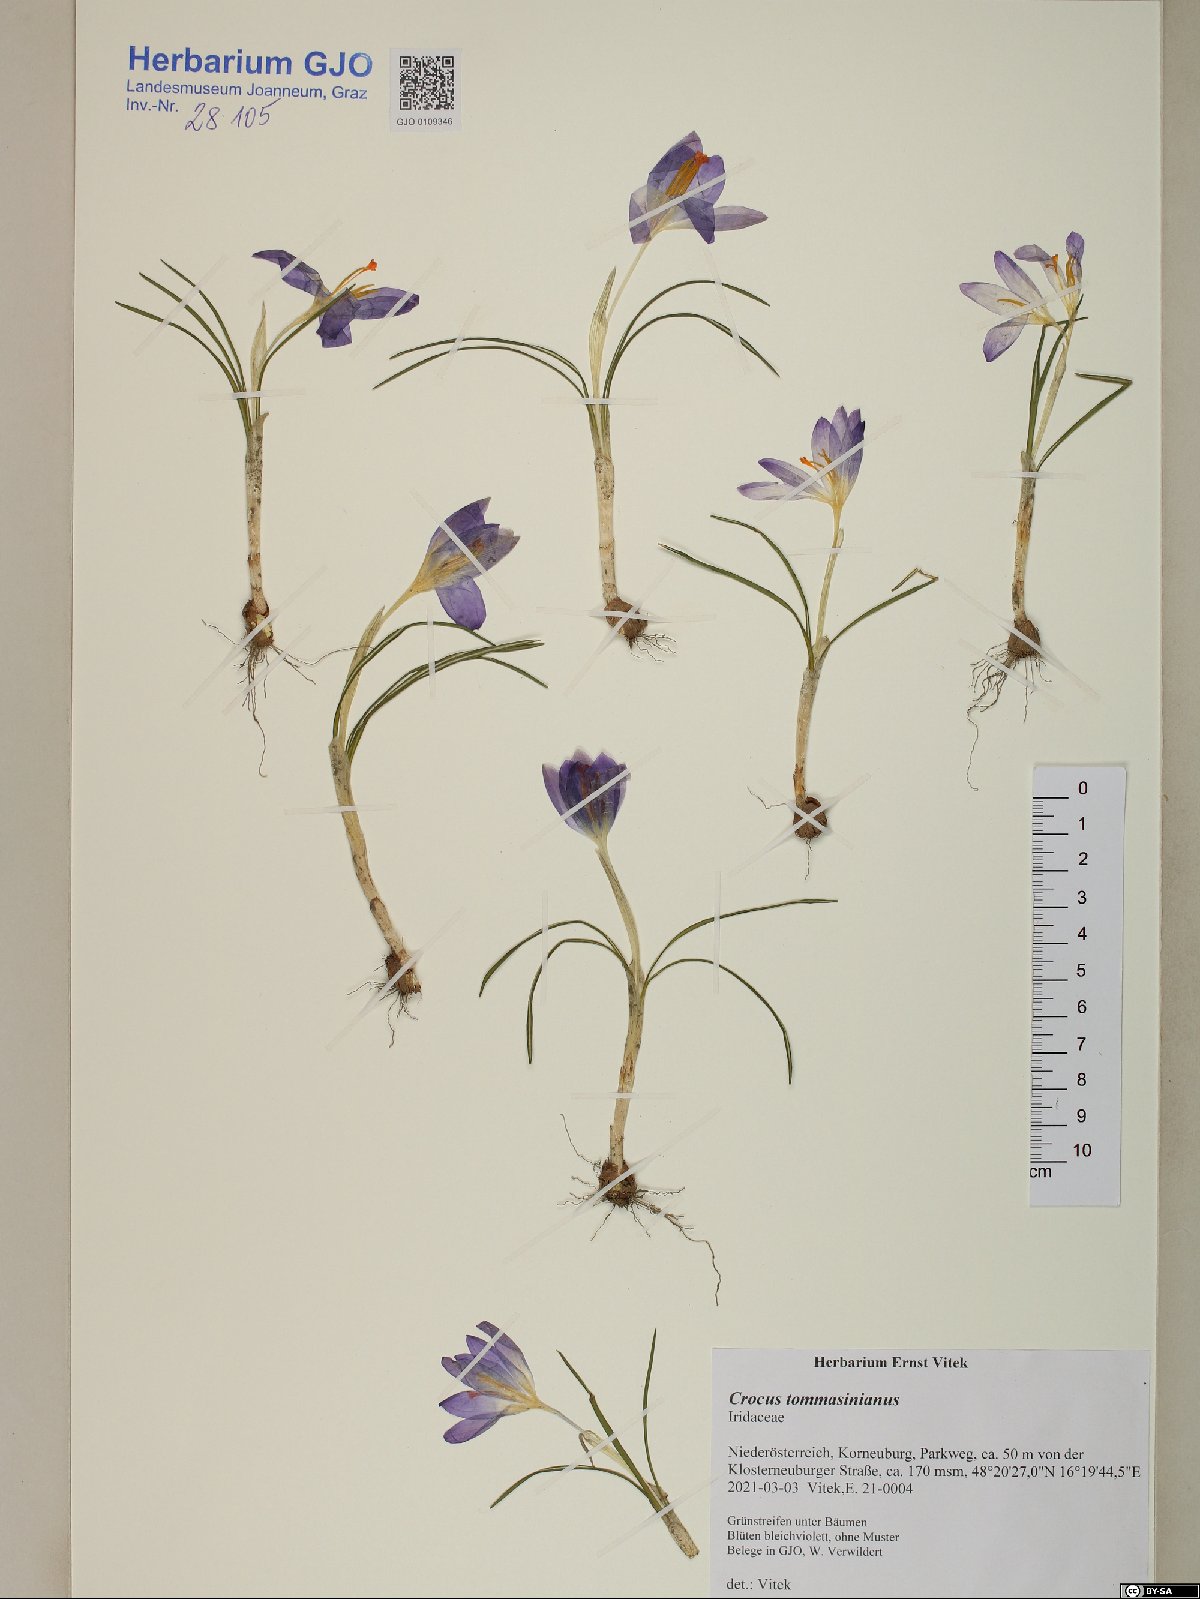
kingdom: Plantae
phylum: Tracheophyta
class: Liliopsida
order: Asparagales
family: Iridaceae
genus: Crocus
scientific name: Crocus tommasinianus
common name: Early crocus
